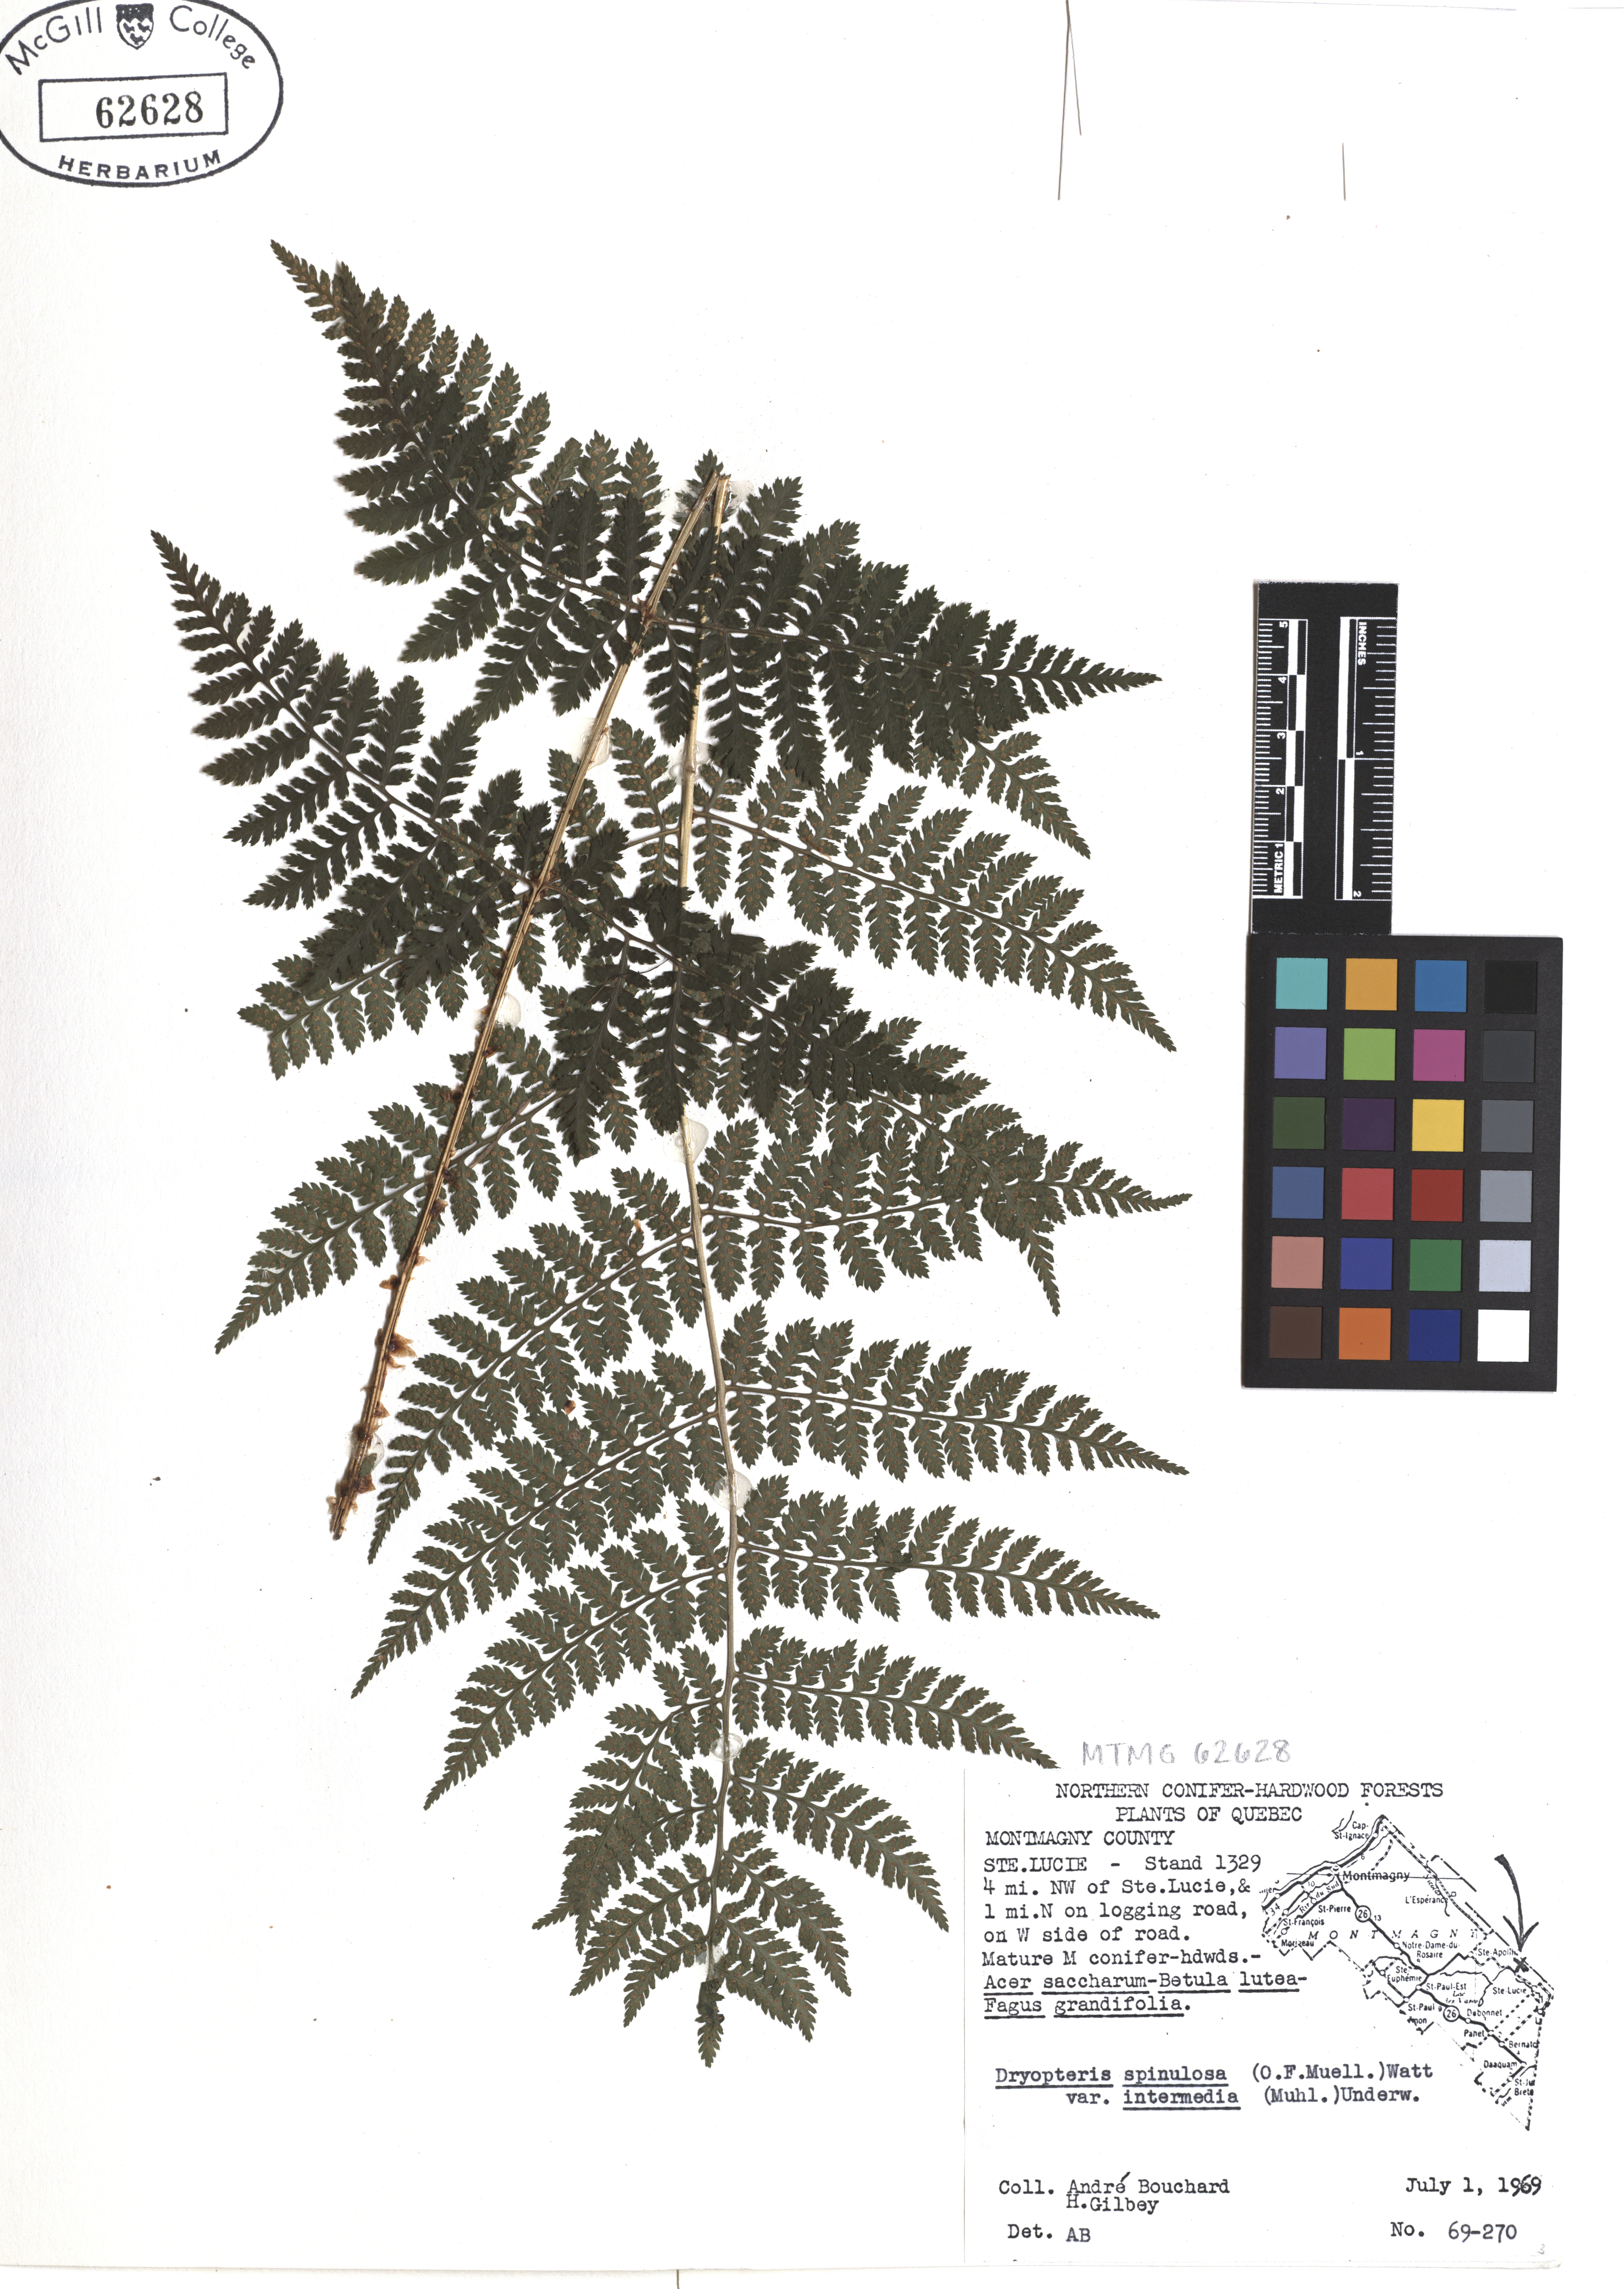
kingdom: Plantae
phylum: Tracheophyta
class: Polypodiopsida
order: Polypodiales
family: Dryopteridaceae
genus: Dryopteris
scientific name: Dryopteris intermedia
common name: Evergreen wood fern
